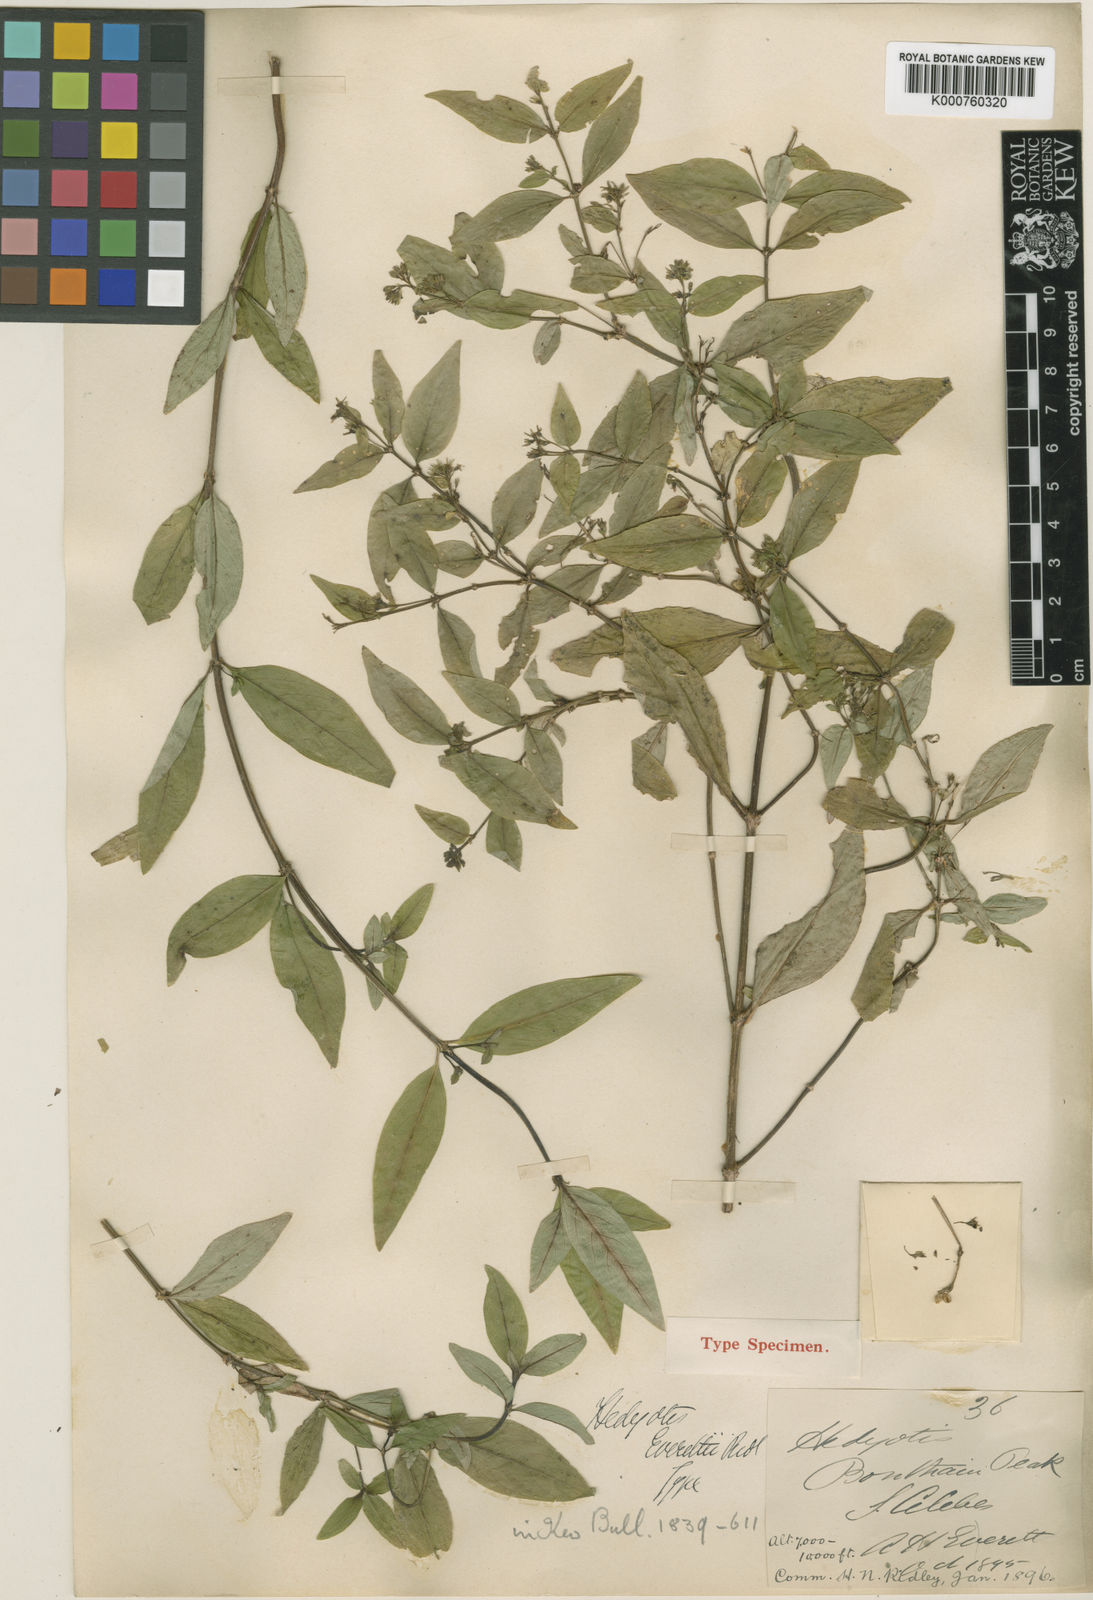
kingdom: Plantae
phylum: Tracheophyta
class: Magnoliopsida
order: Gentianales
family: Rubiaceae
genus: Hedyotis
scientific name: Hedyotis everettii
